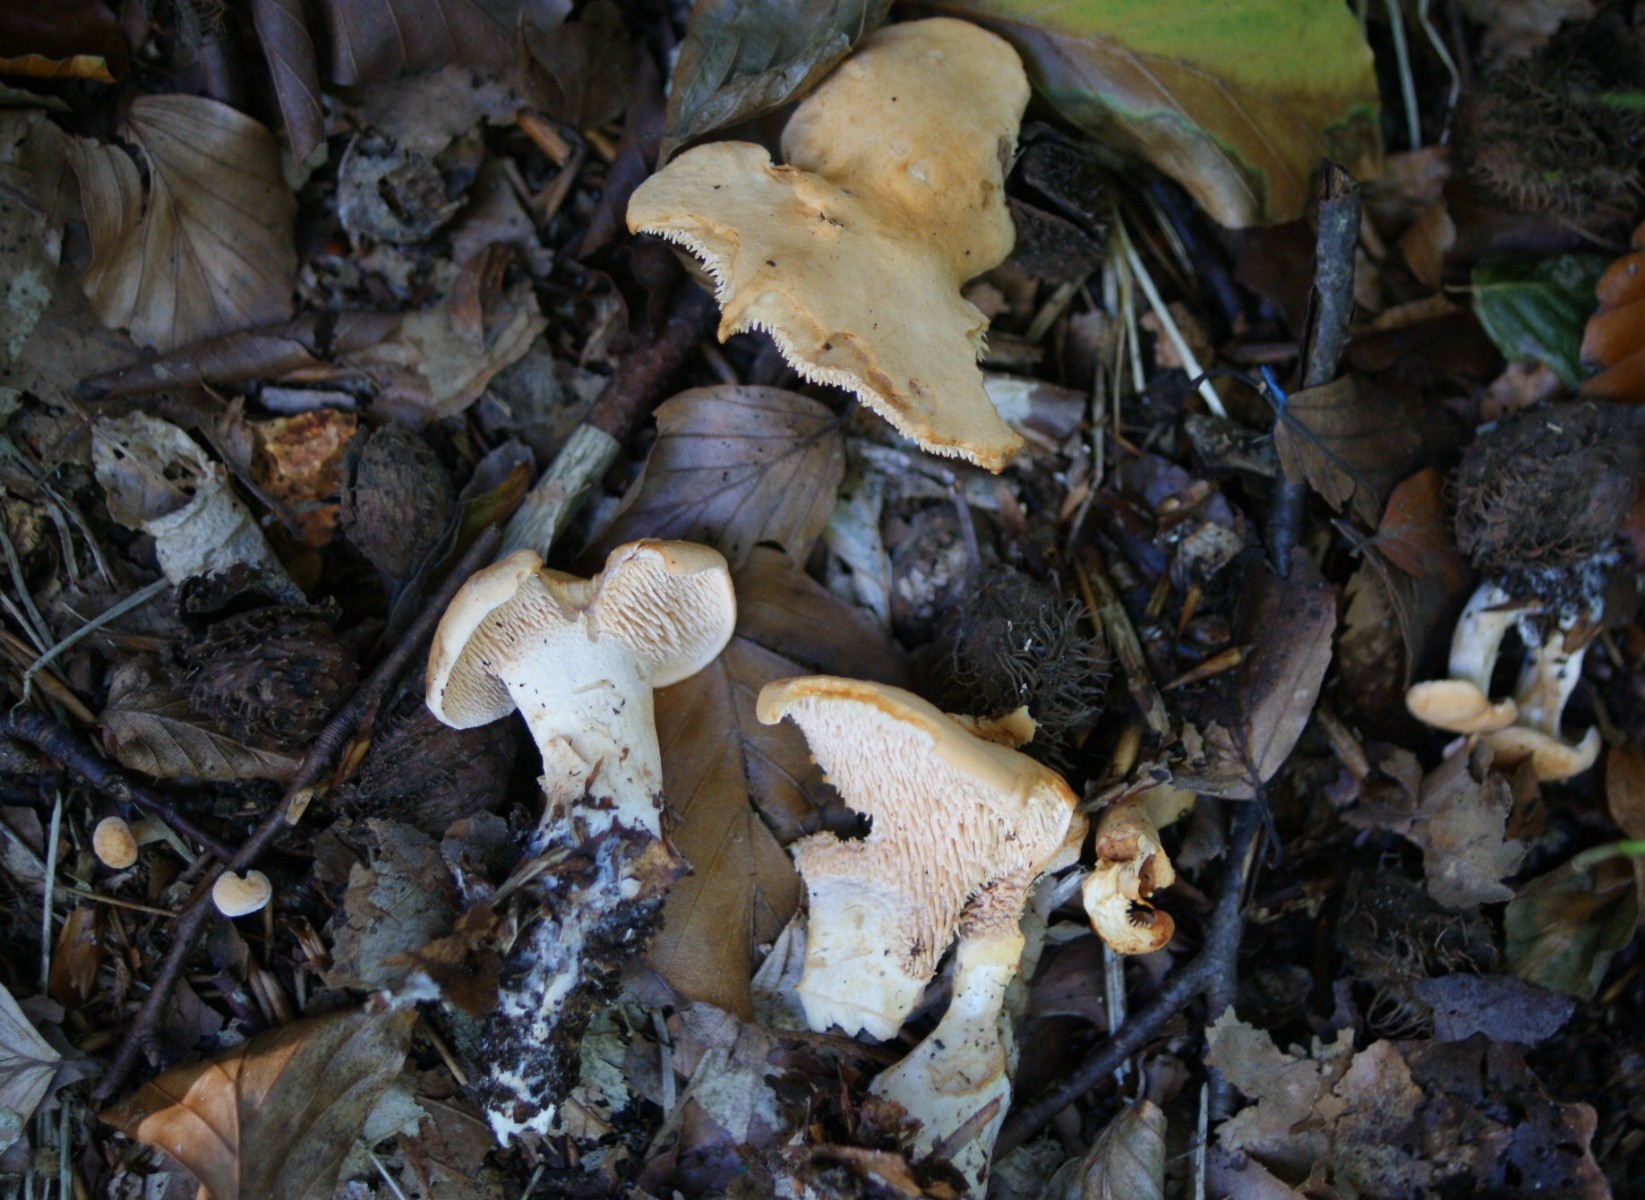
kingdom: Fungi
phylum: Basidiomycota
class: Agaricomycetes
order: Cantharellales
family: Hydnaceae
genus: Hydnum
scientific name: Hydnum rufescens
